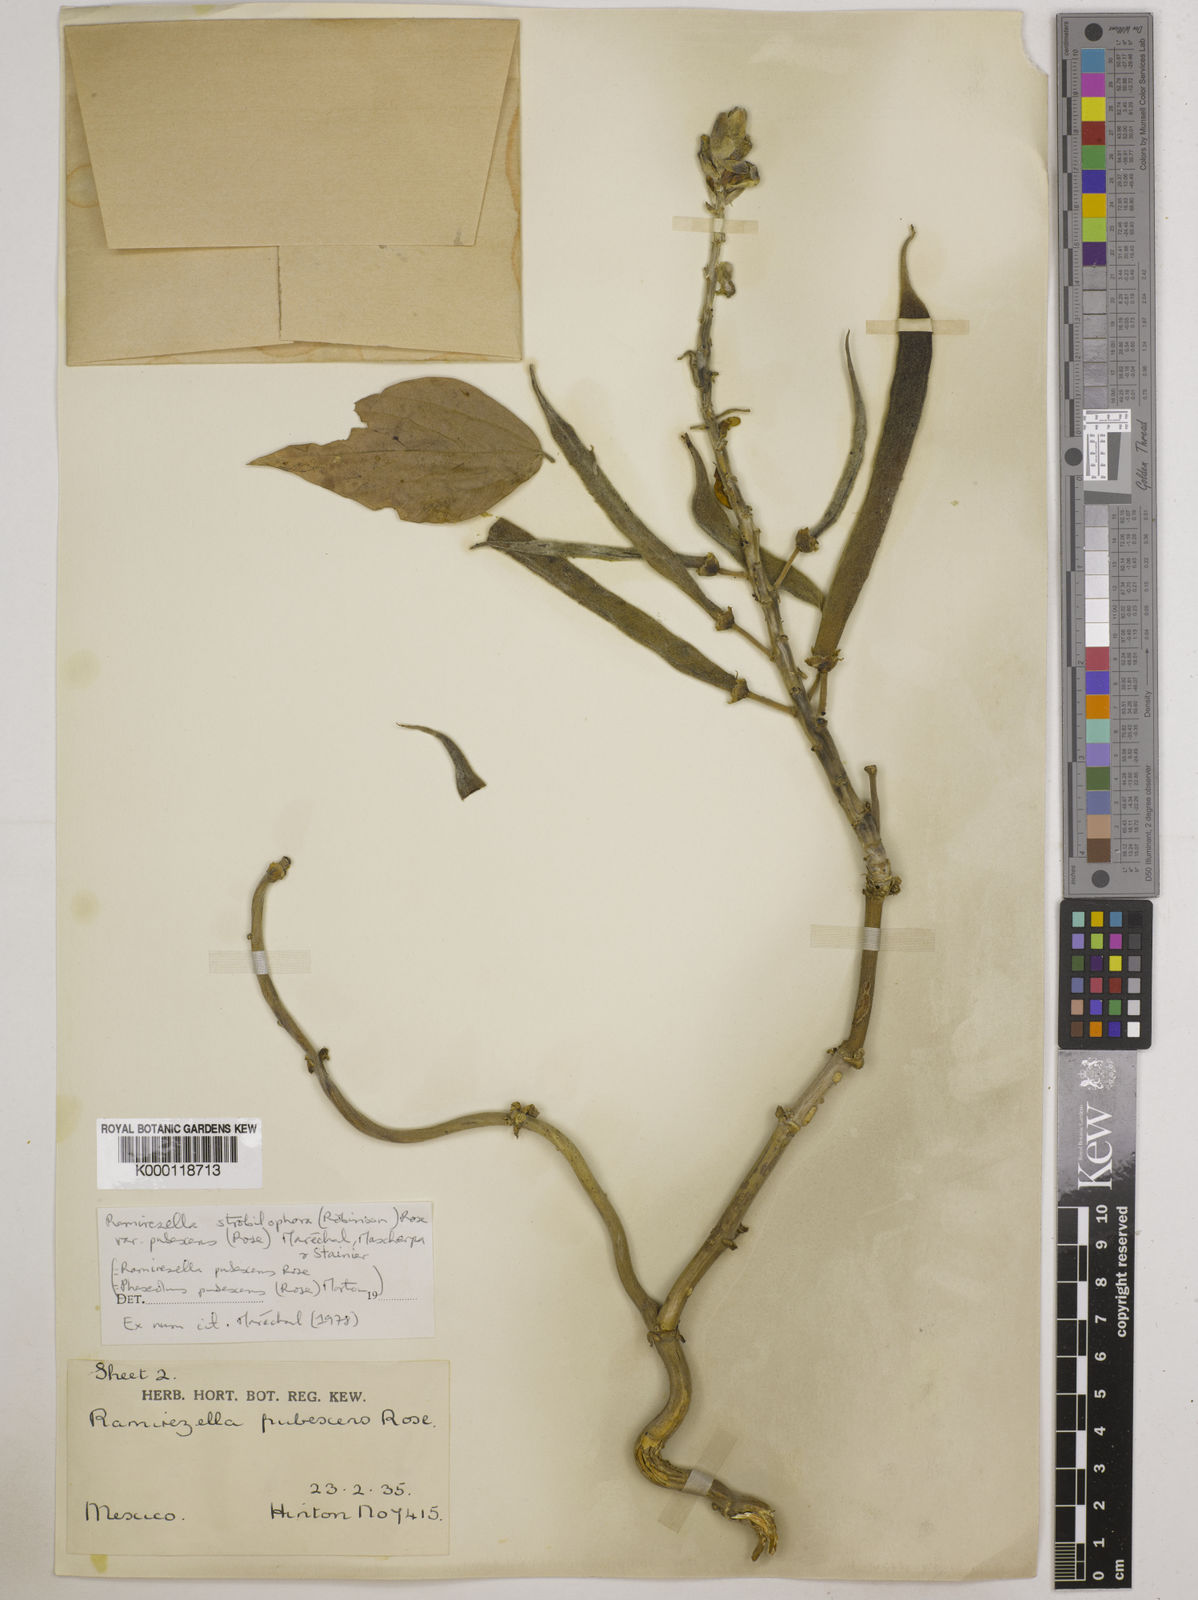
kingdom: Plantae
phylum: Tracheophyta
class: Magnoliopsida
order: Fabales
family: Fabaceae
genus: Ramirezella
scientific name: Ramirezella strobilophora
